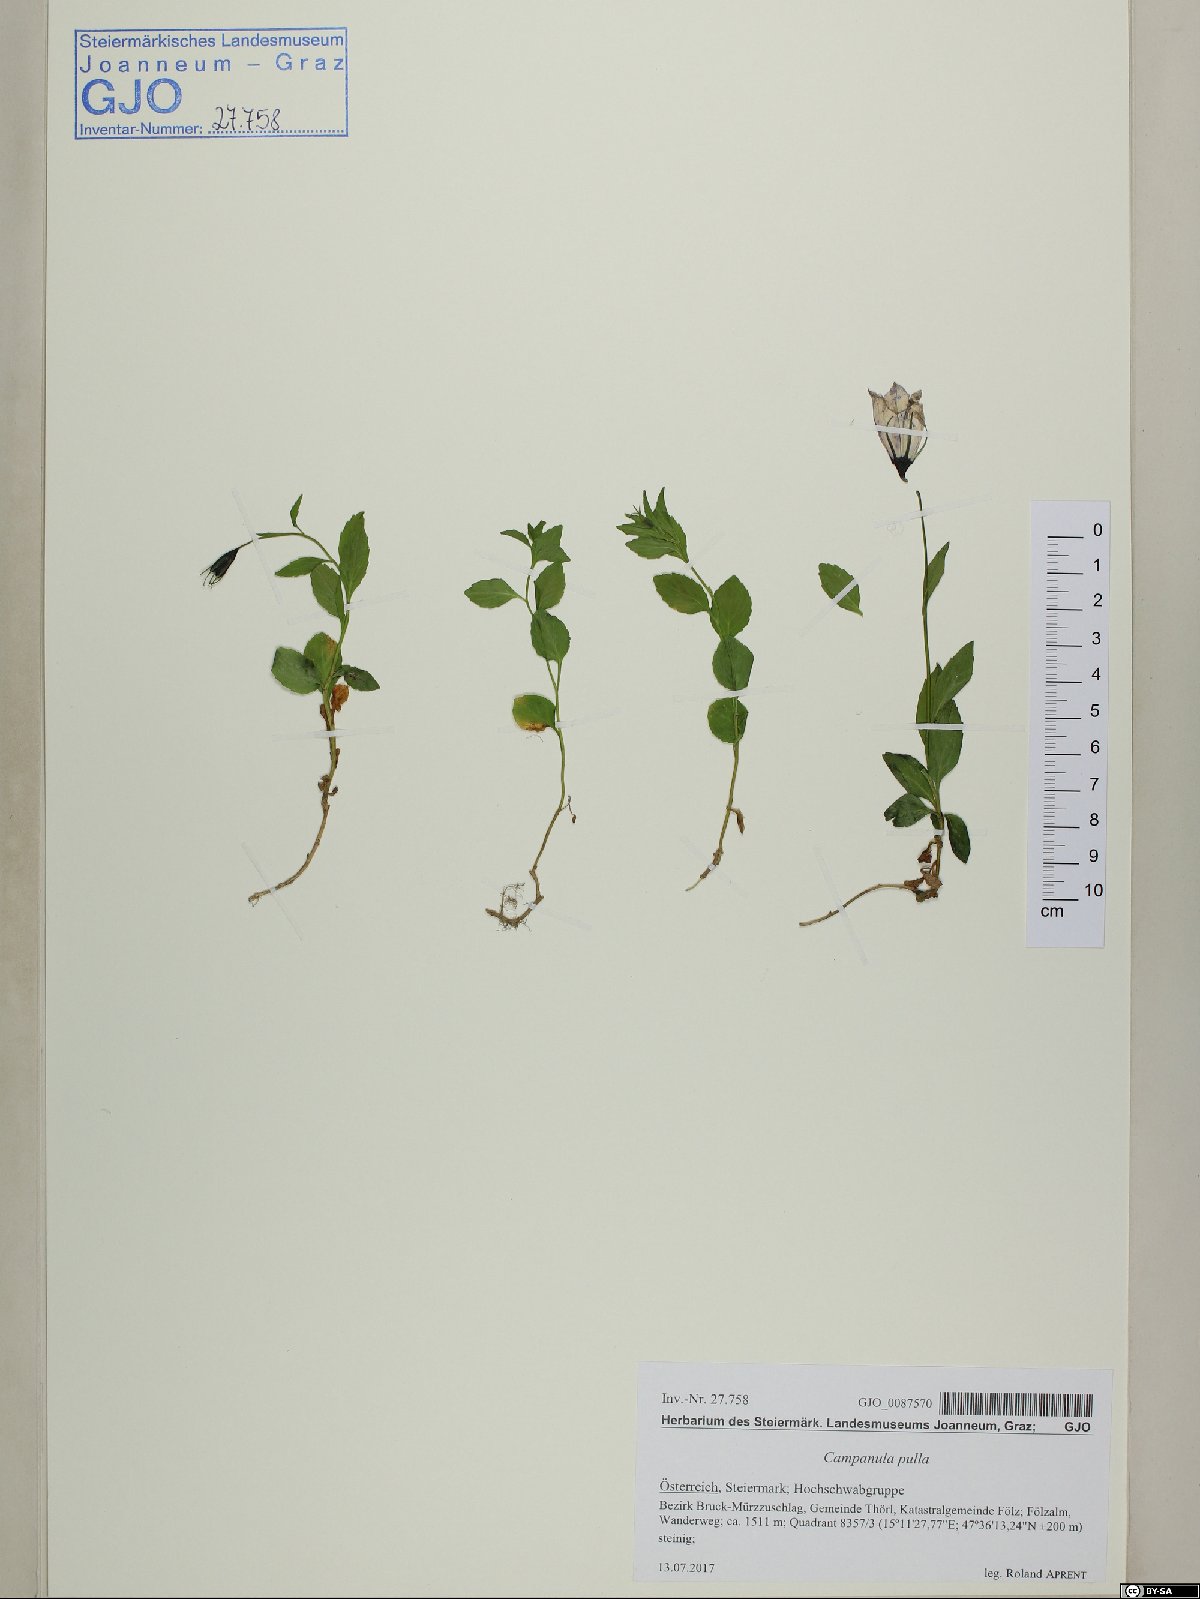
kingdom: Plantae
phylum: Tracheophyta
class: Magnoliopsida
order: Asterales
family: Campanulaceae
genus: Campanula
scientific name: Campanula pulla
